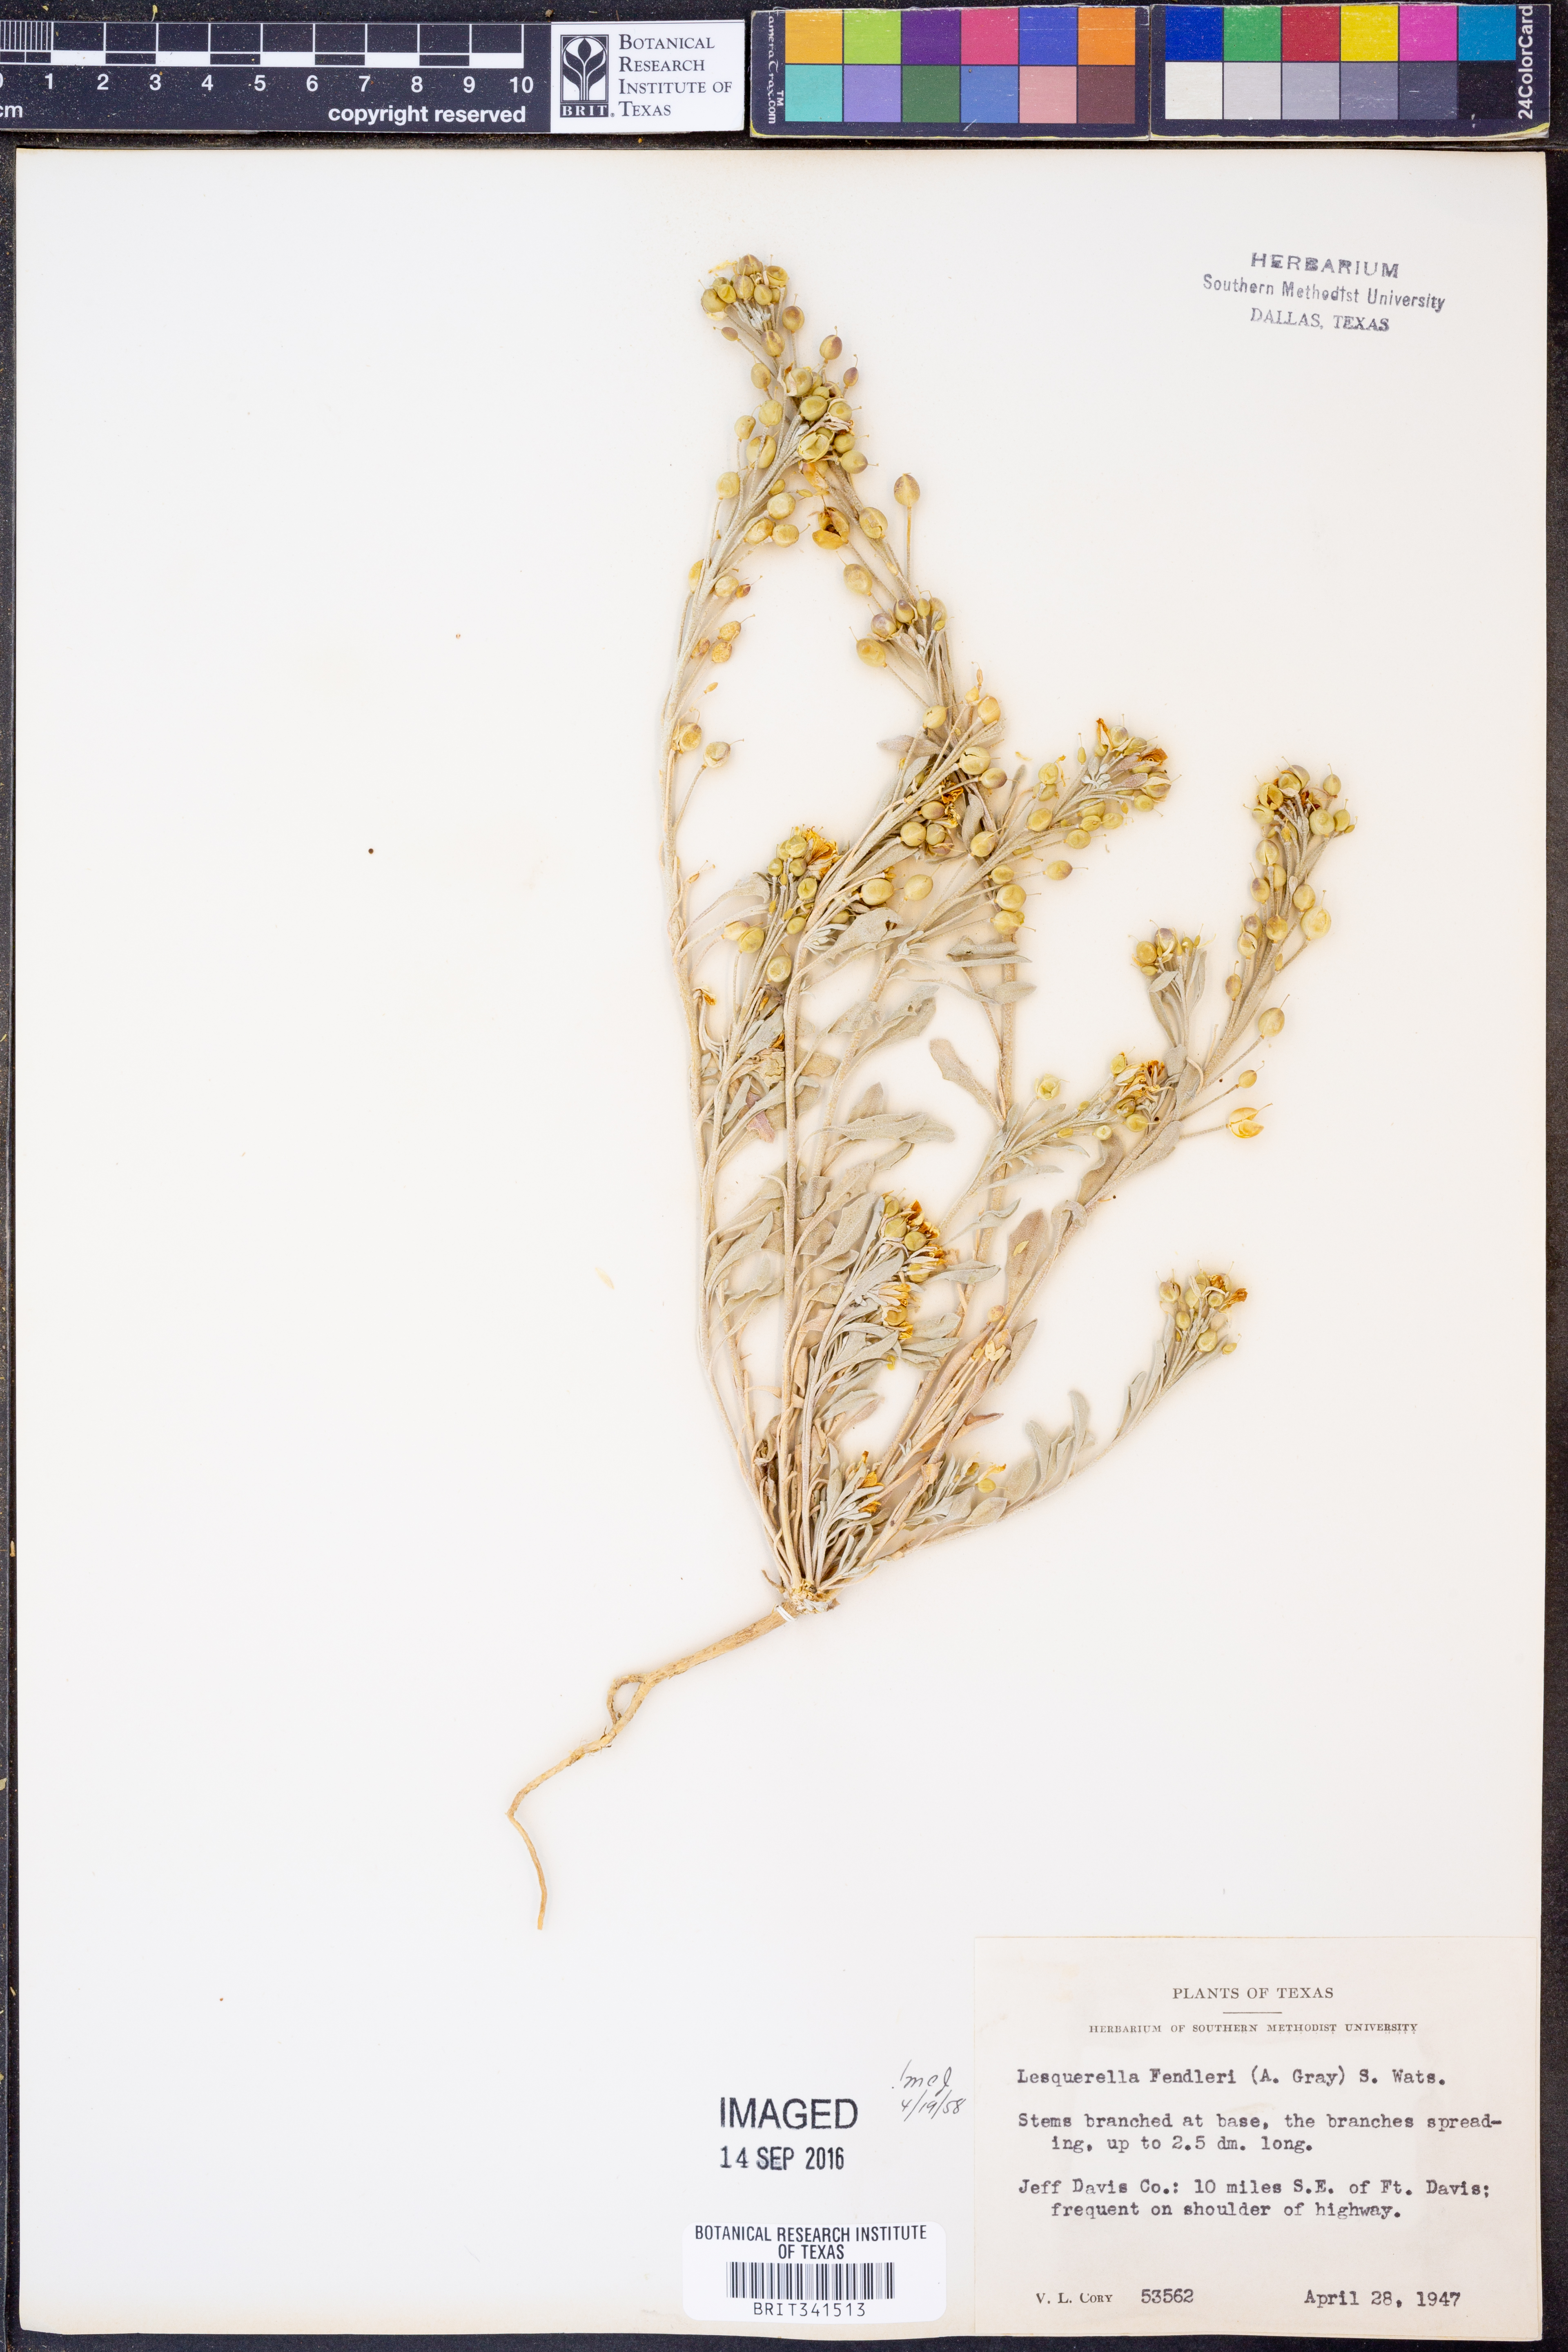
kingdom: Plantae
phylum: Tracheophyta
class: Magnoliopsida
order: Brassicales
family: Brassicaceae
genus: Physaria
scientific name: Physaria fendleri
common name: Fendler's bladderpod
